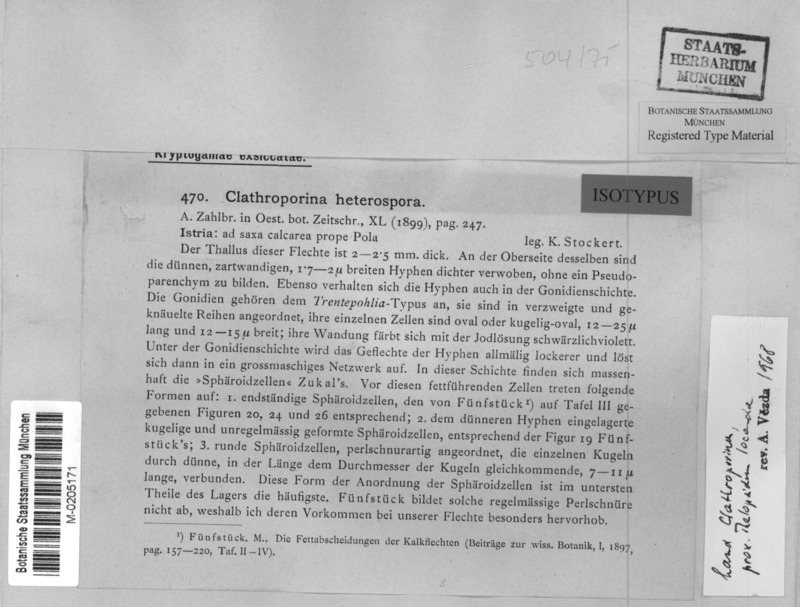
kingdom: Fungi
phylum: Ascomycota
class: Lecanoromycetes
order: Ostropales
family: Stictidaceae
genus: Topelia
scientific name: Topelia heterospora
